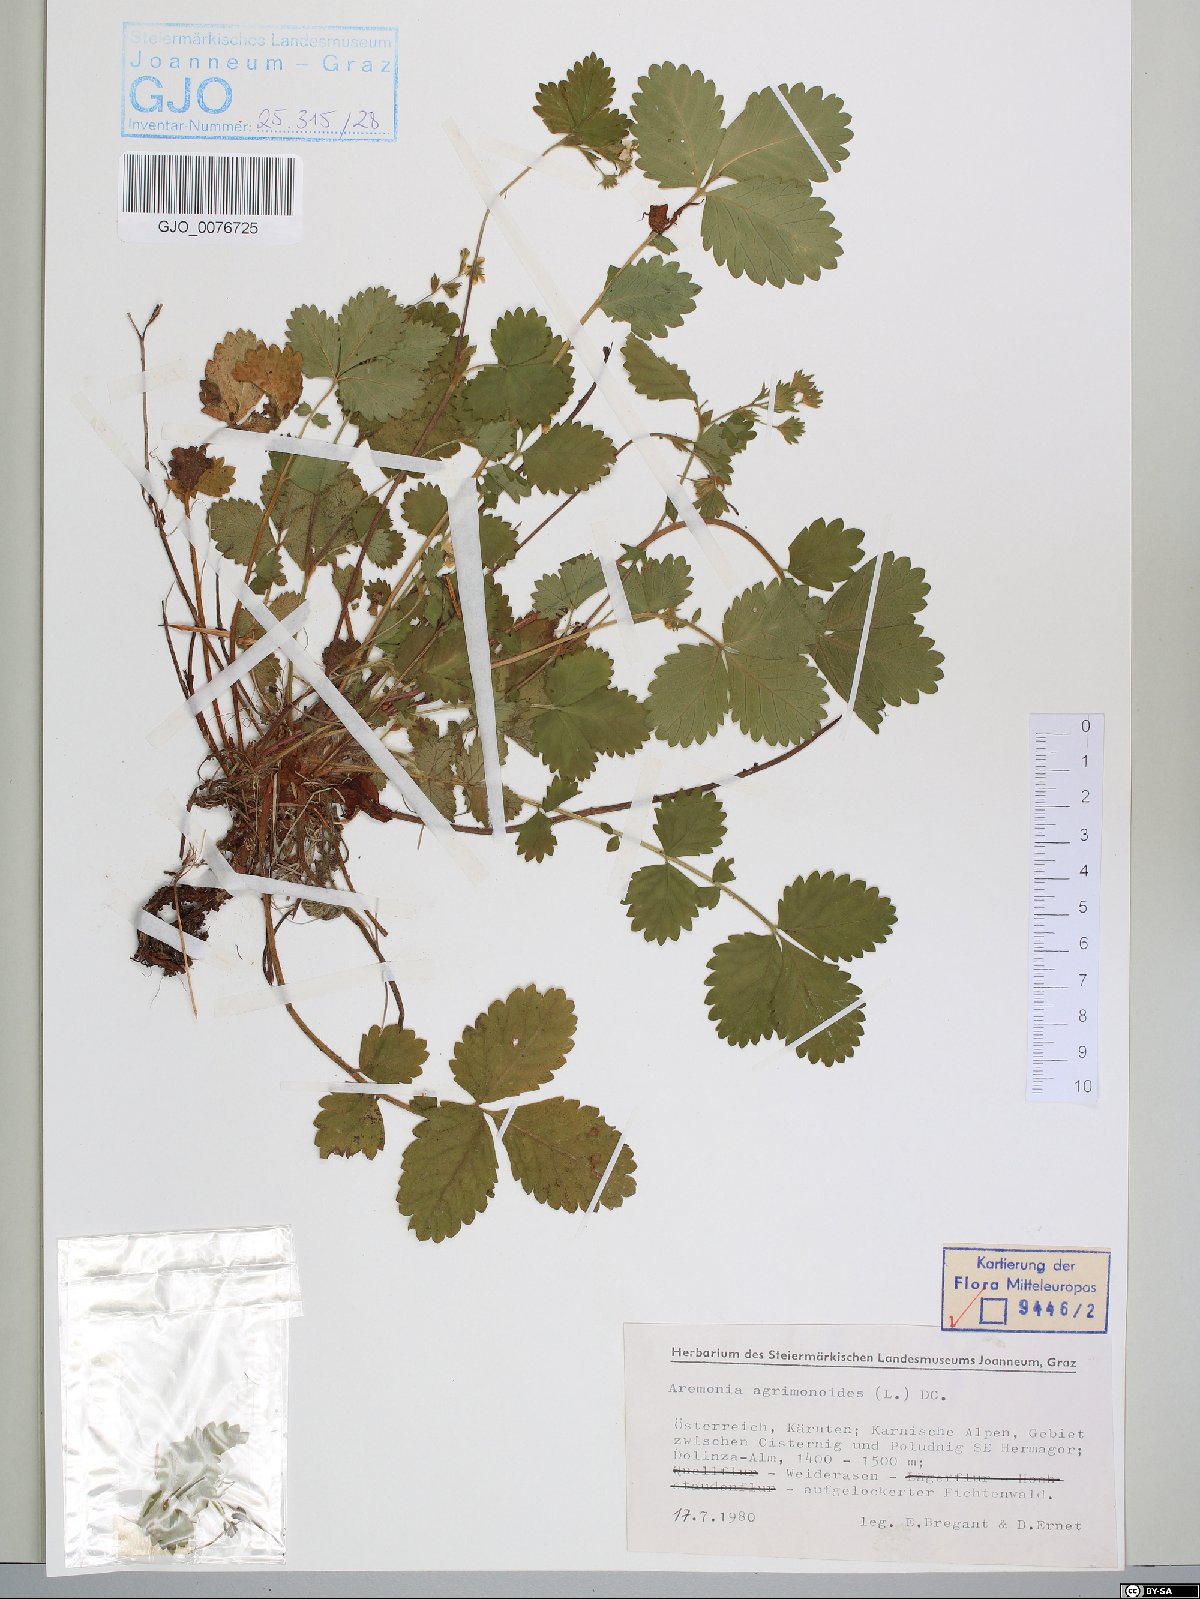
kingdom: Plantae
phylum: Tracheophyta
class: Magnoliopsida
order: Rosales
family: Rosaceae
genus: Aremonia
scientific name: Aremonia agrimonoides
